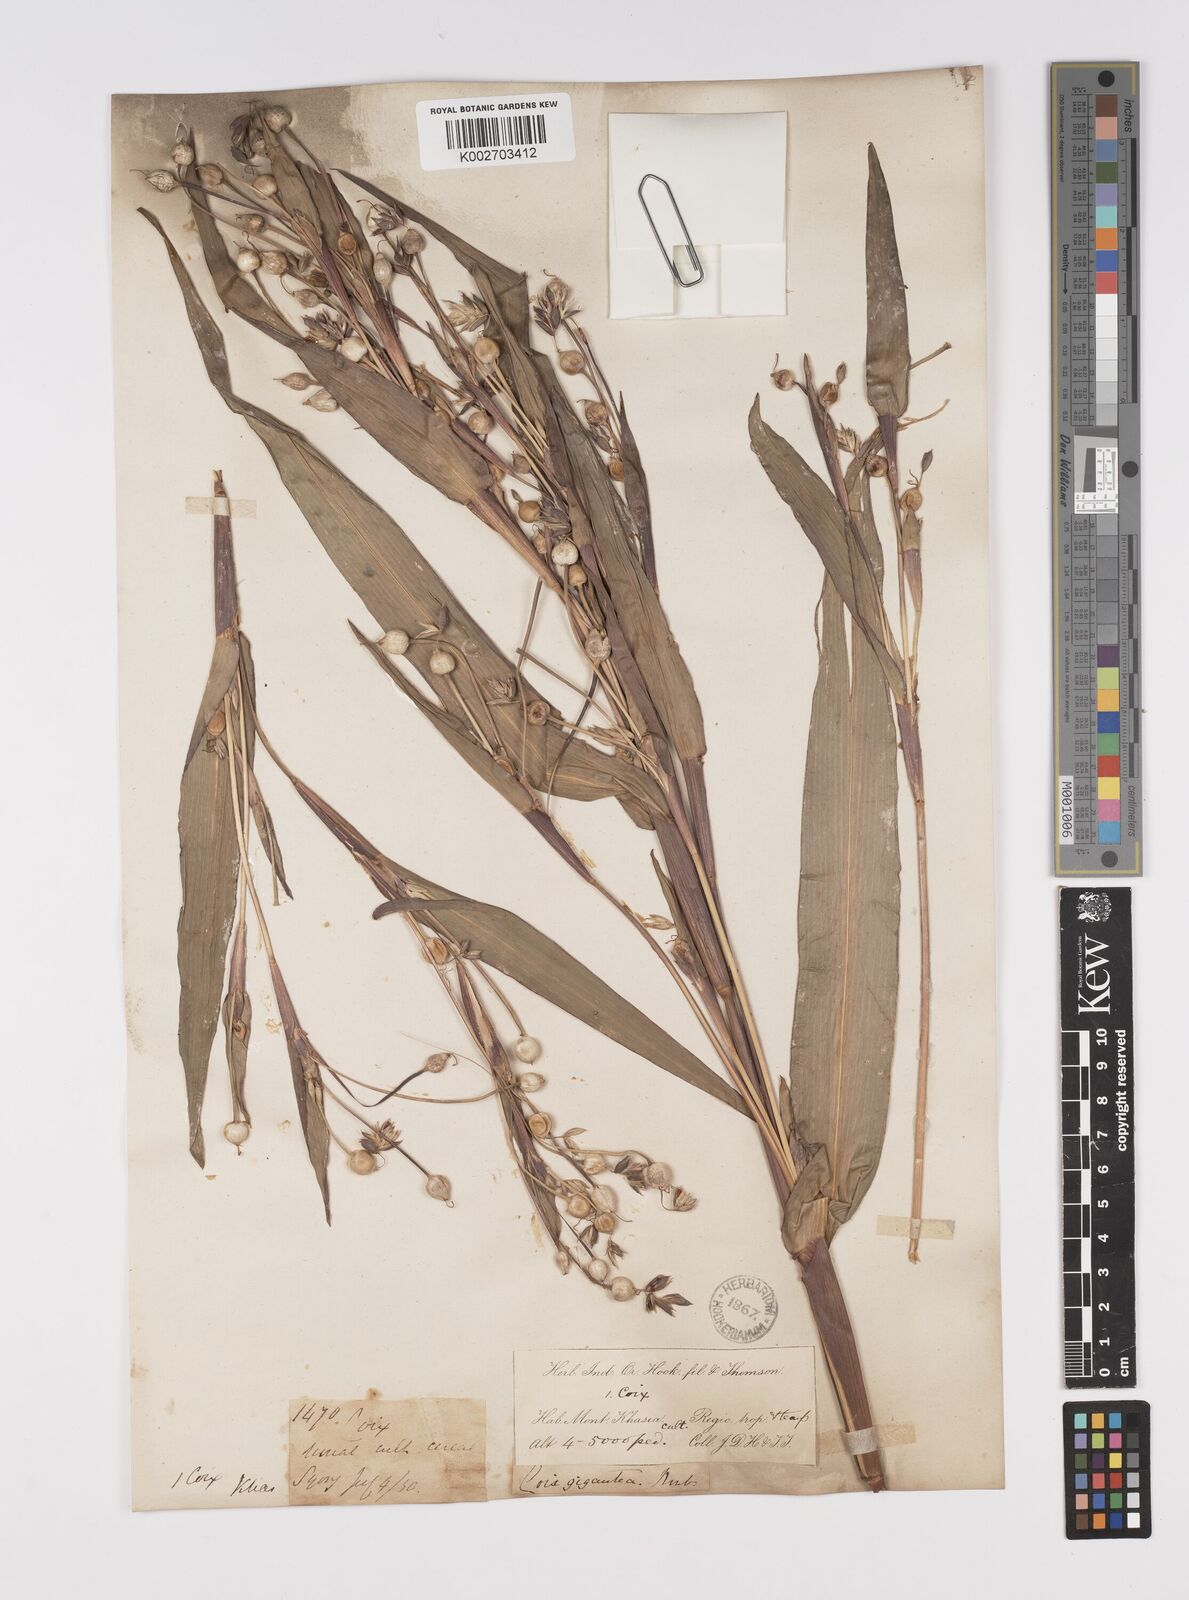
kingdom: Plantae
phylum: Tracheophyta
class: Liliopsida
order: Poales
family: Poaceae
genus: Coix
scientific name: Coix lacryma-jobi
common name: Job's tears
